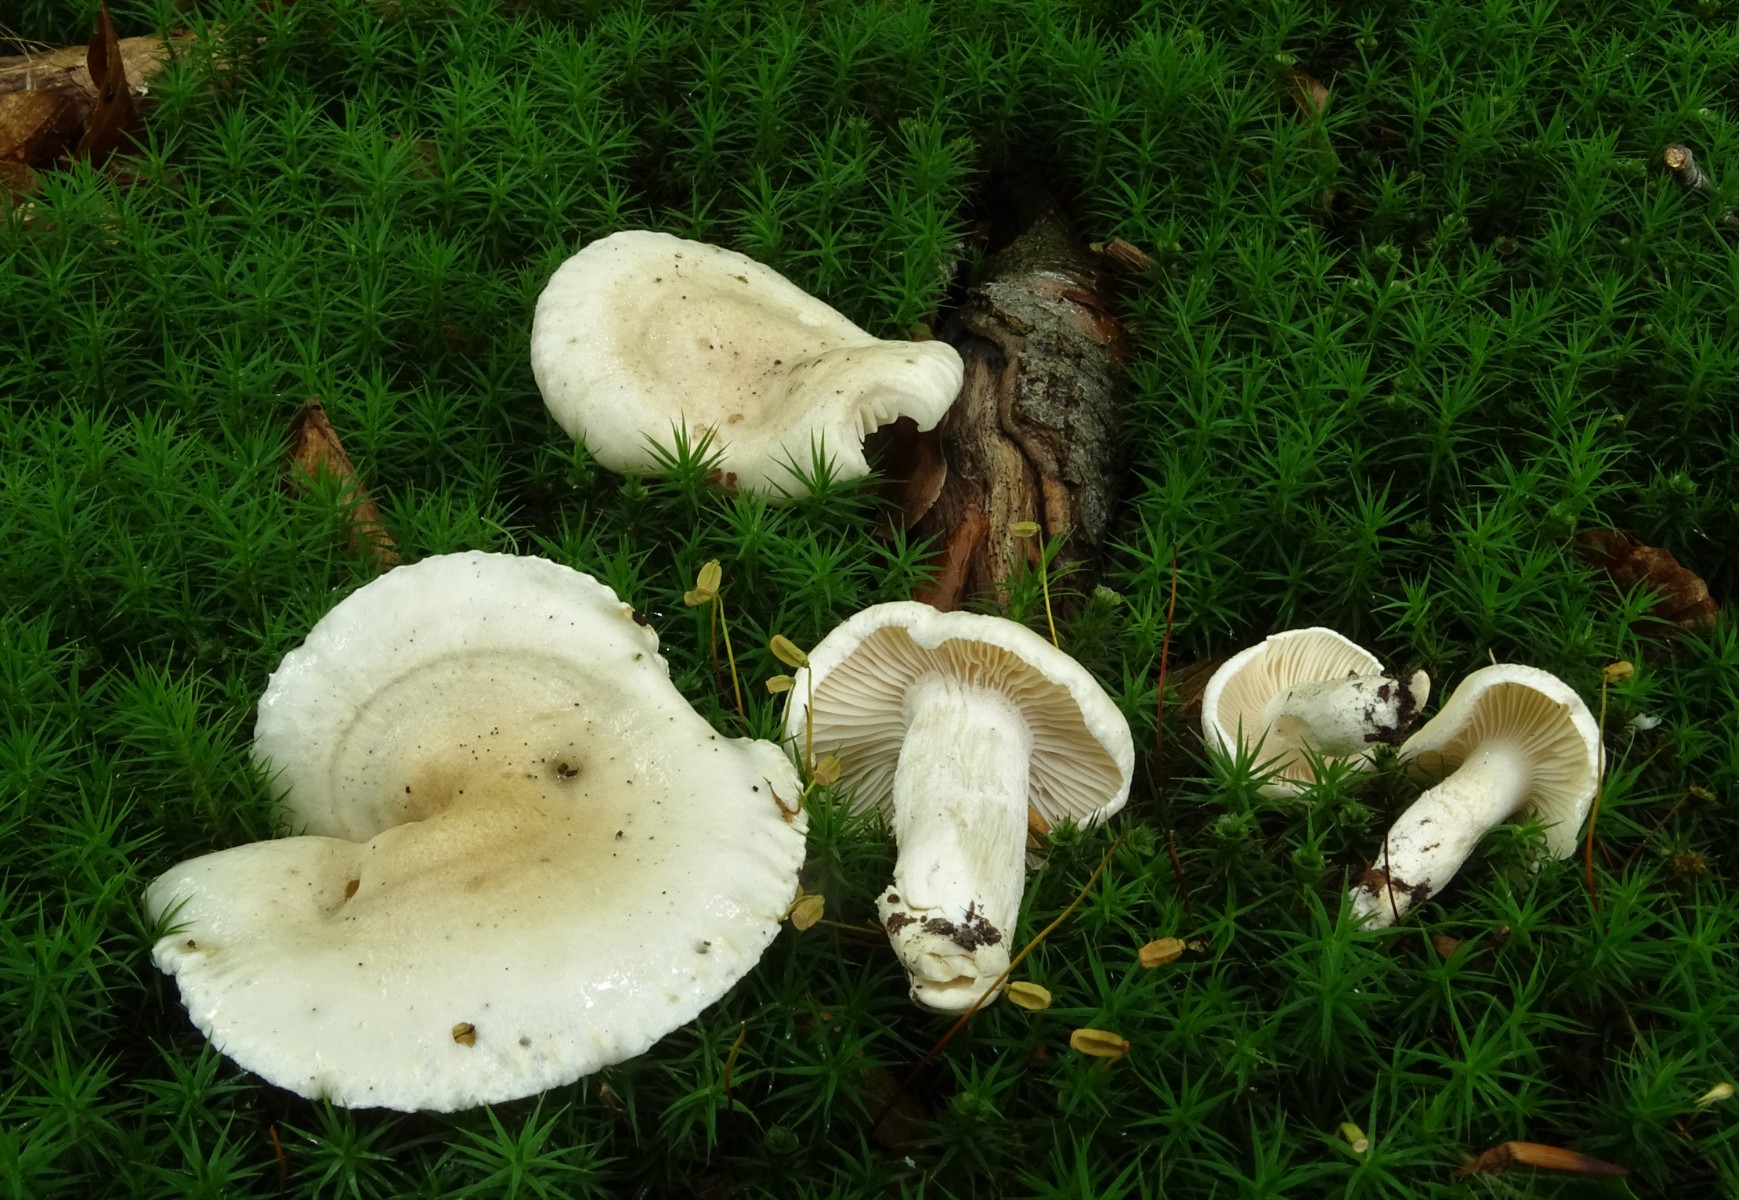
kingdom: Fungi
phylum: Basidiomycota
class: Agaricomycetes
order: Agaricales
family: Hygrophoraceae
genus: Hygrophorus
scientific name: Hygrophorus penarius
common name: spiselig sneglehat
